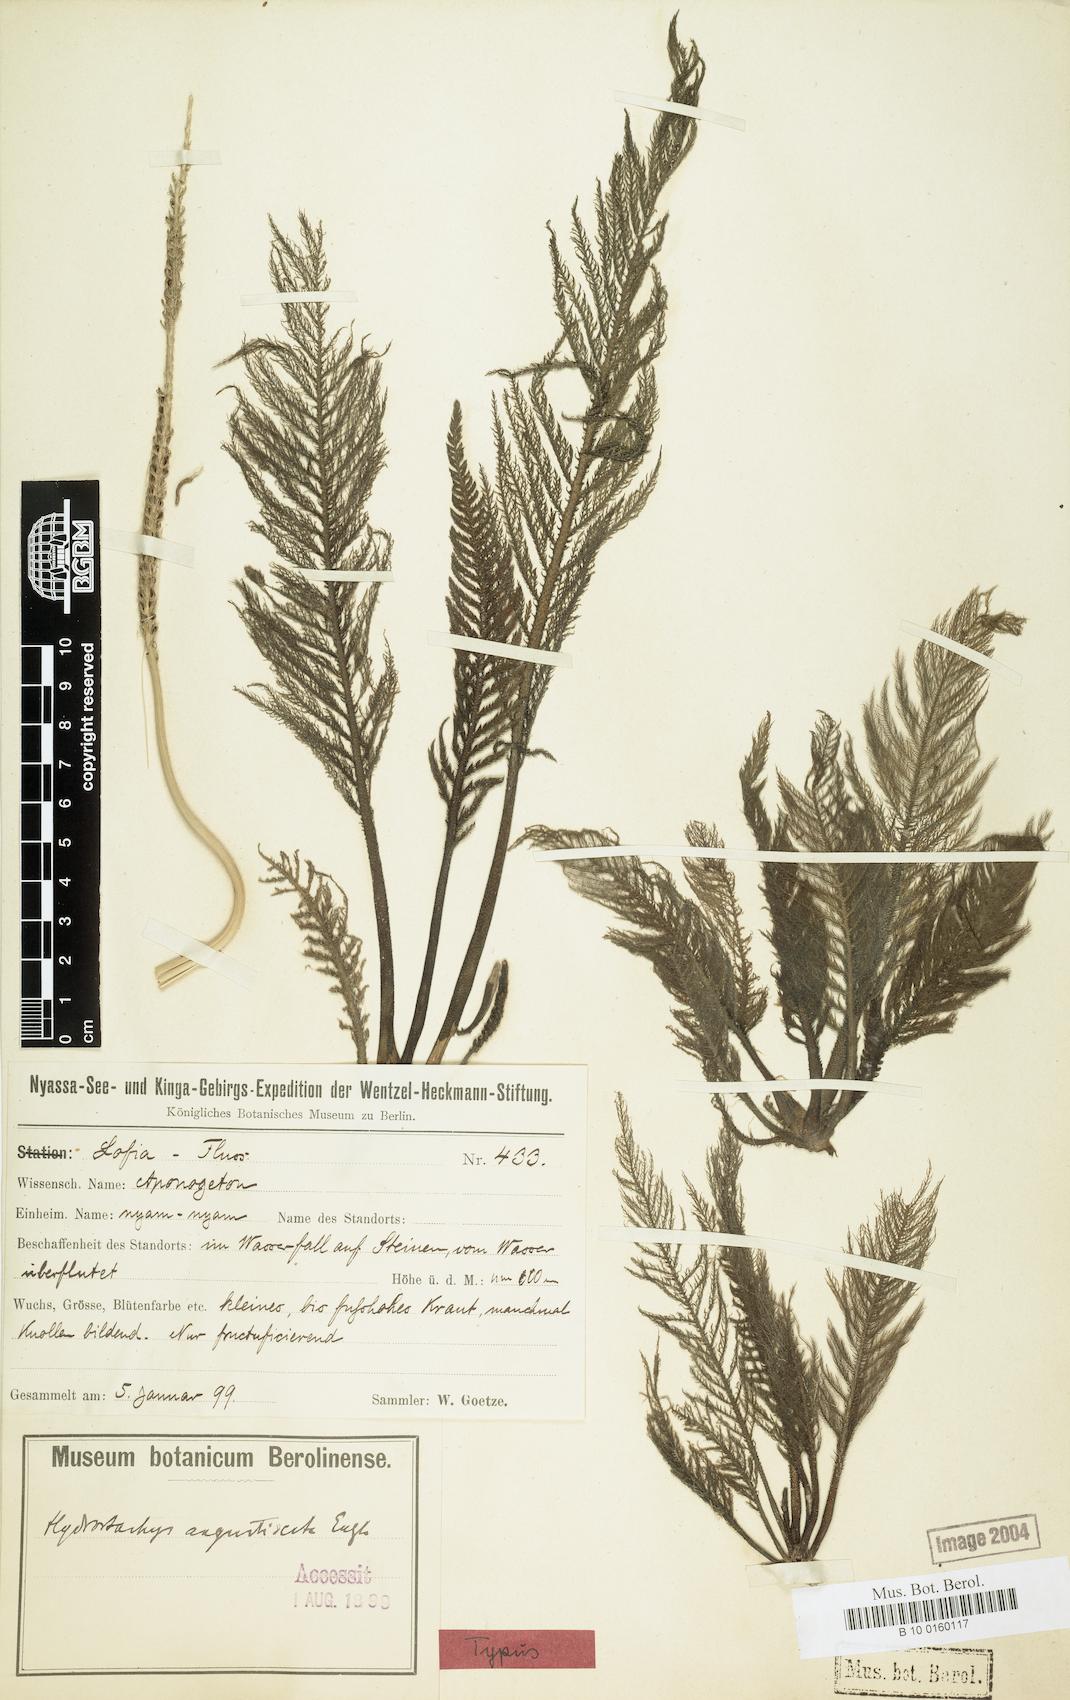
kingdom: Plantae
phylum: Tracheophyta
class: Magnoliopsida
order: Cornales
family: Hydrostachyaceae
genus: Hydrostachys
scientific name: Hydrostachys angustisecta
